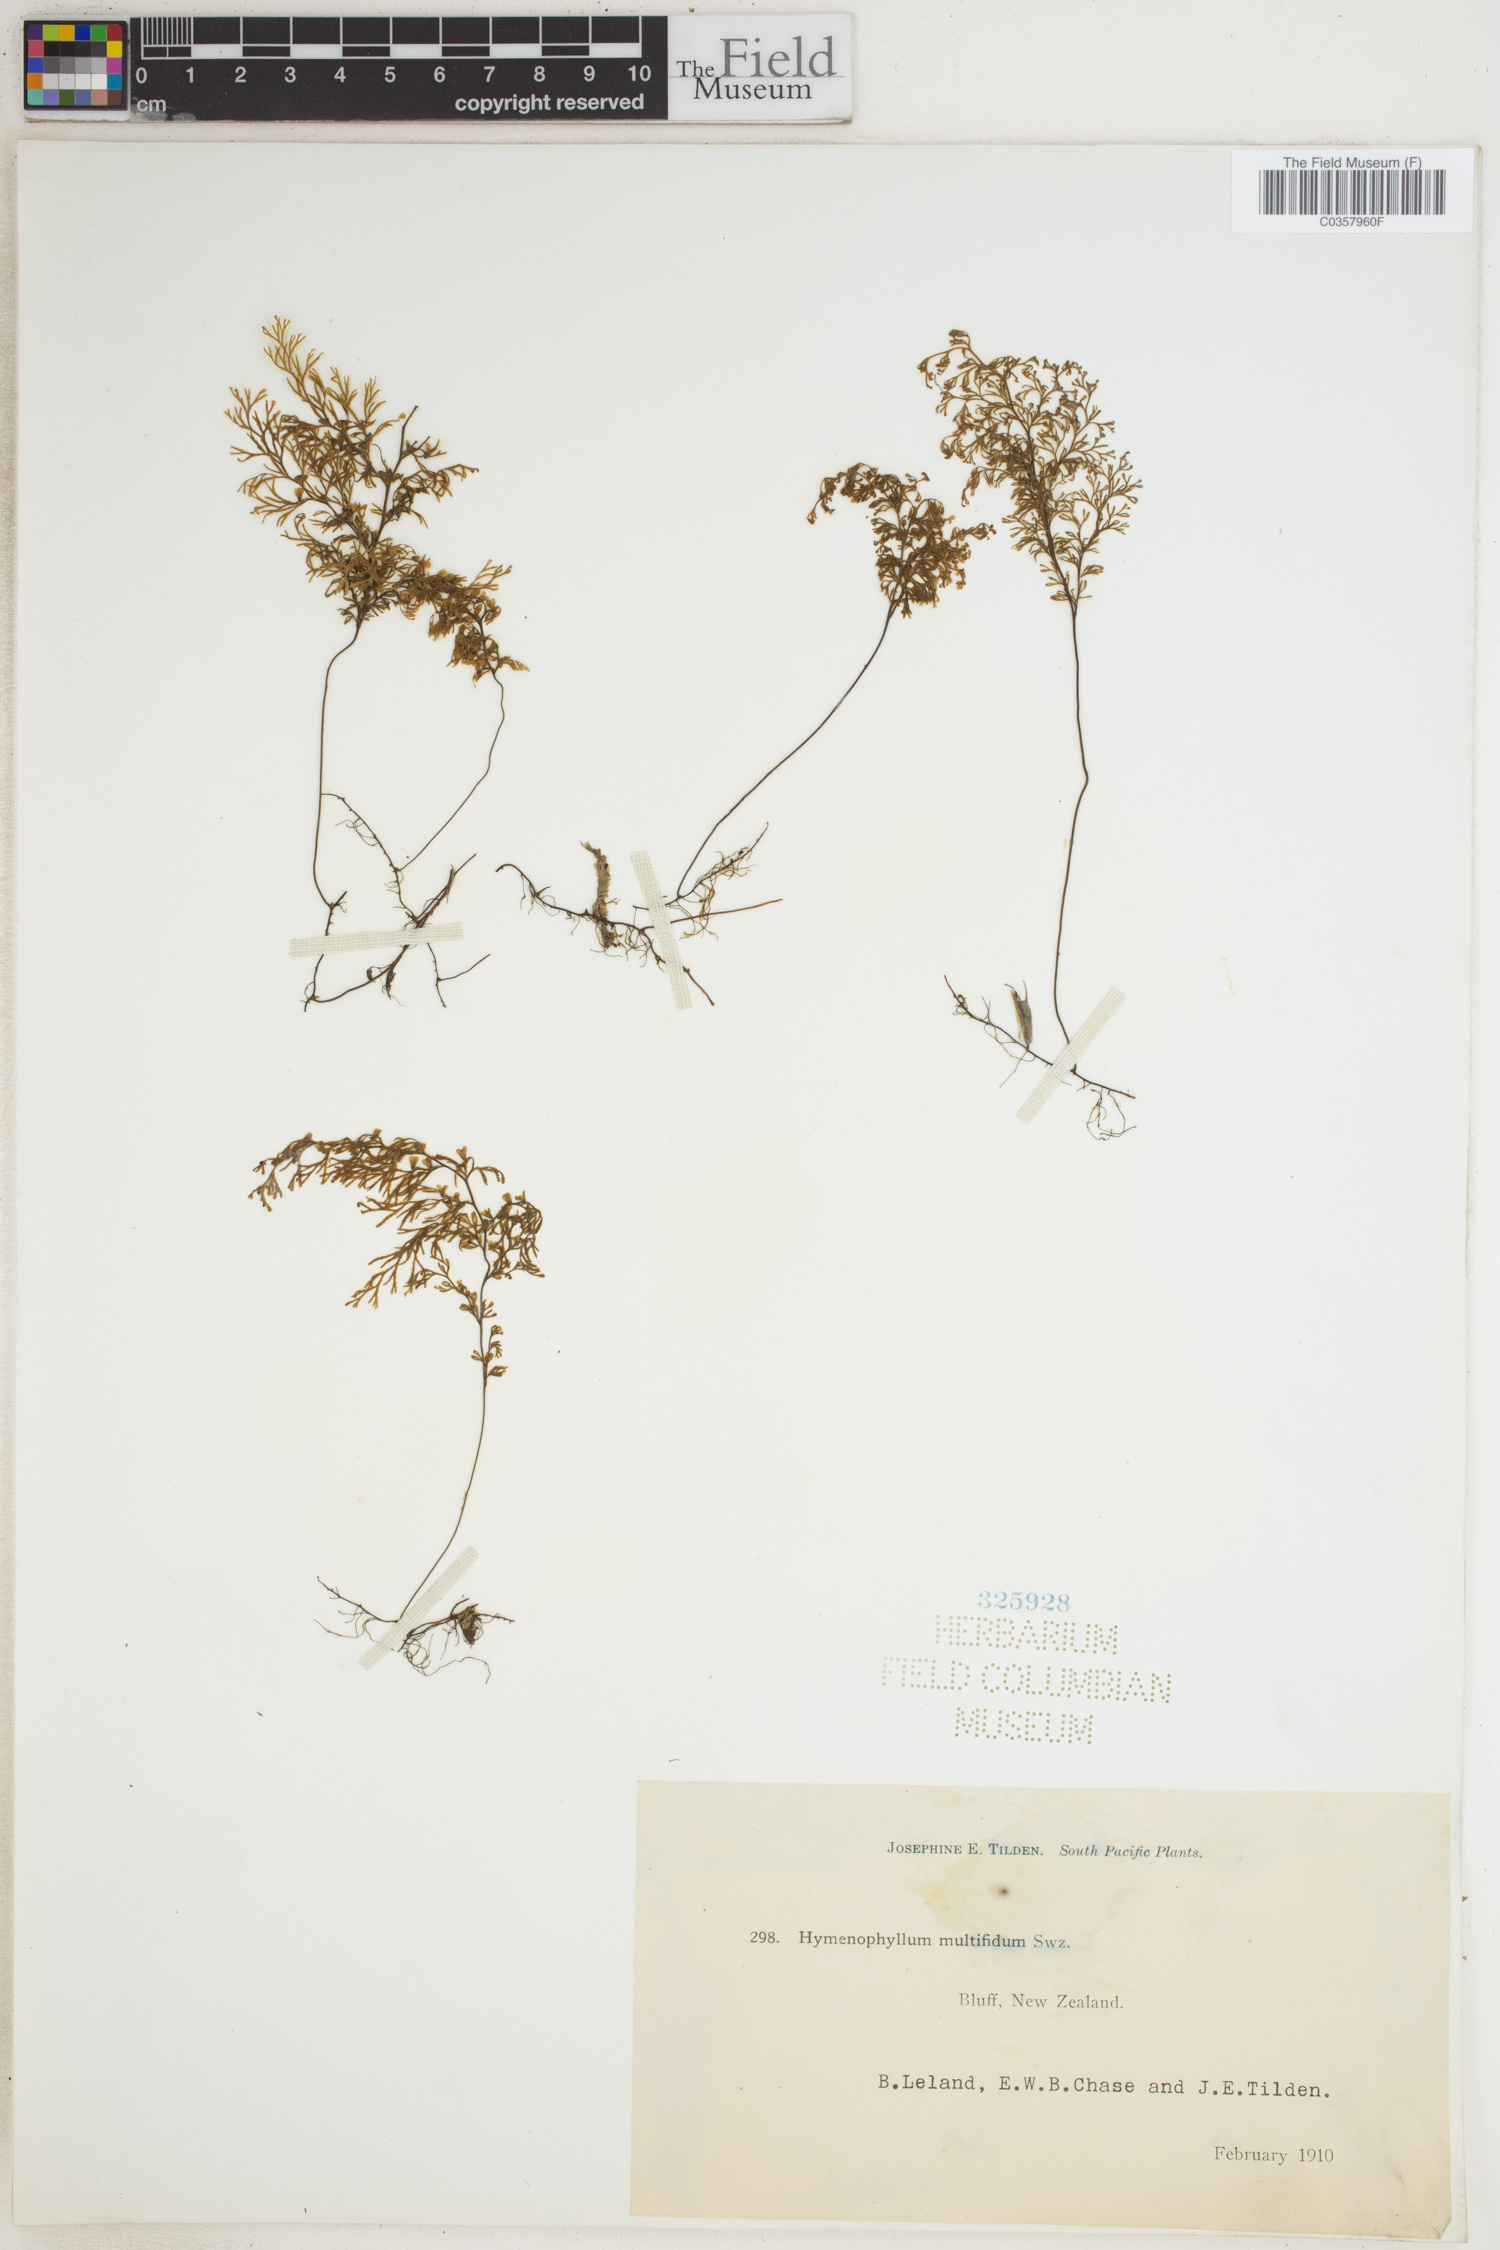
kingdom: Plantae
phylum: Tracheophyta
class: Polypodiopsida
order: Hymenophyllales
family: Hymenophyllaceae
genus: Hymenophyllum
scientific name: Hymenophyllum multifidum
